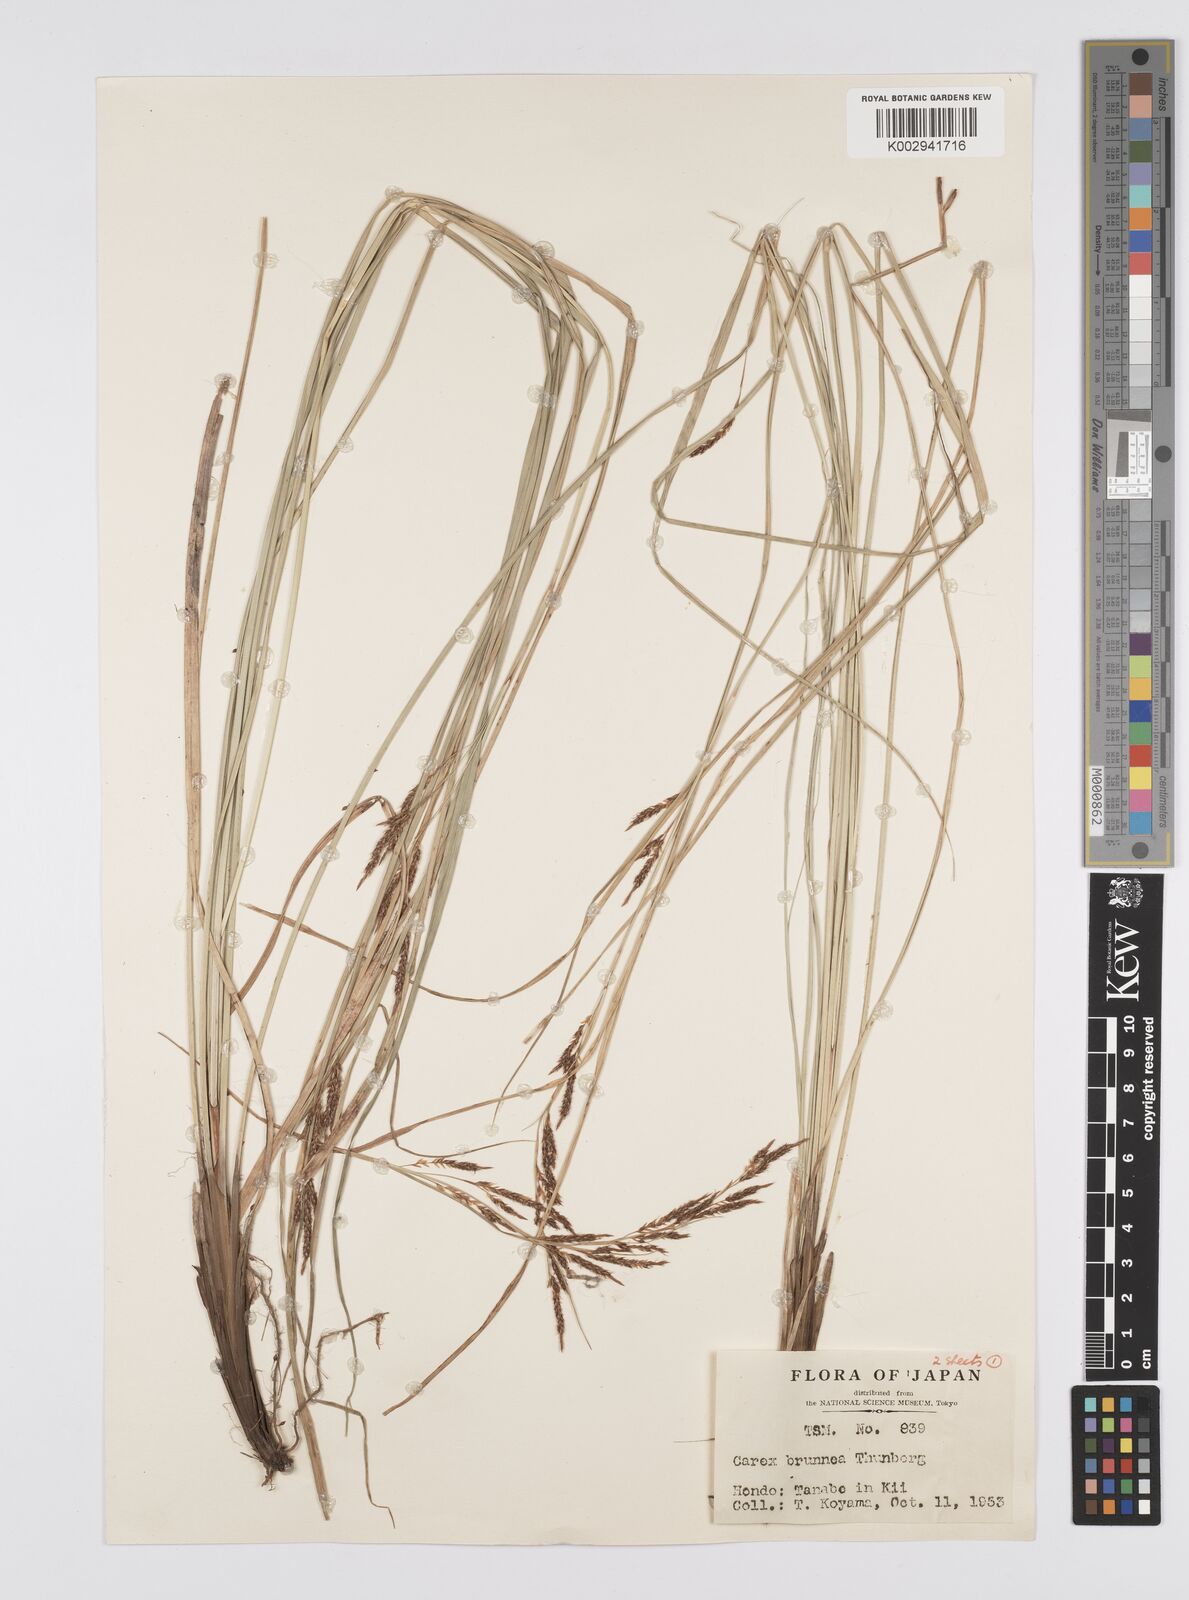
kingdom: Plantae
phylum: Tracheophyta
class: Liliopsida
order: Poales
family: Cyperaceae
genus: Carex
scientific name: Carex brunnea
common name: Greater brown sedge
